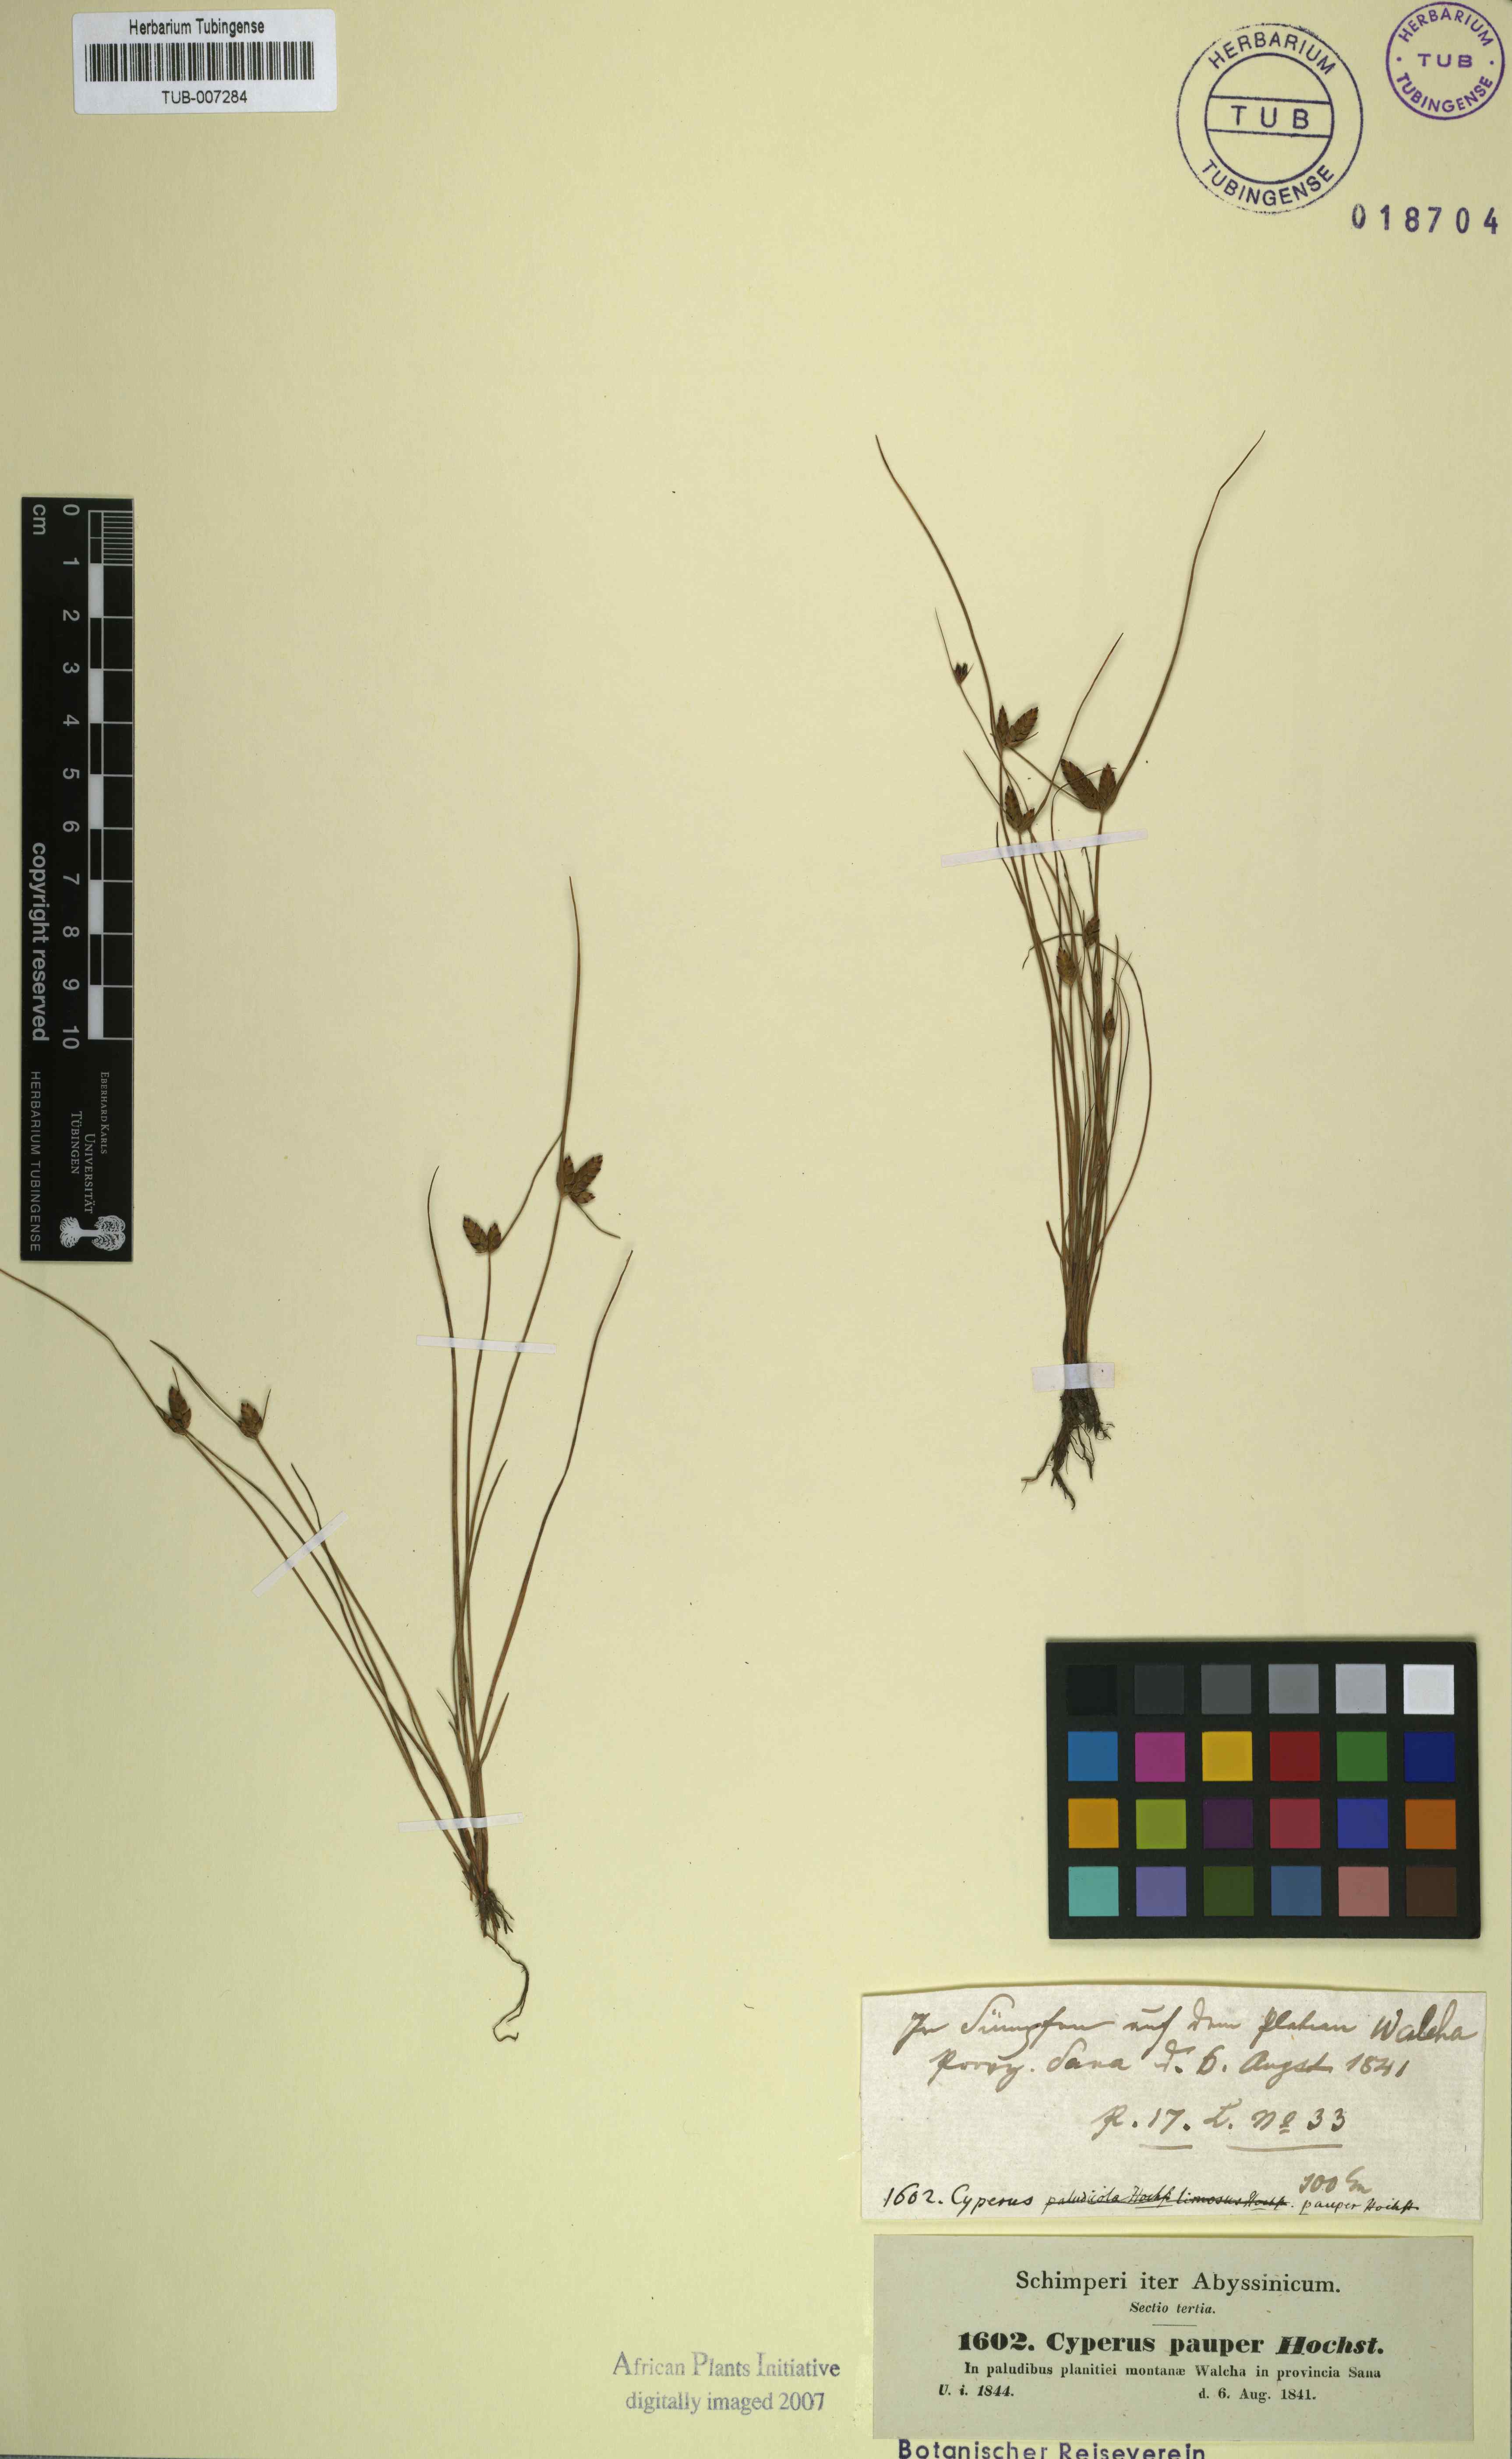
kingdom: Plantae
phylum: Tracheophyta
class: Liliopsida
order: Poales
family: Cyperaceae
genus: Cyperus
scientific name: Cyperus pauper
